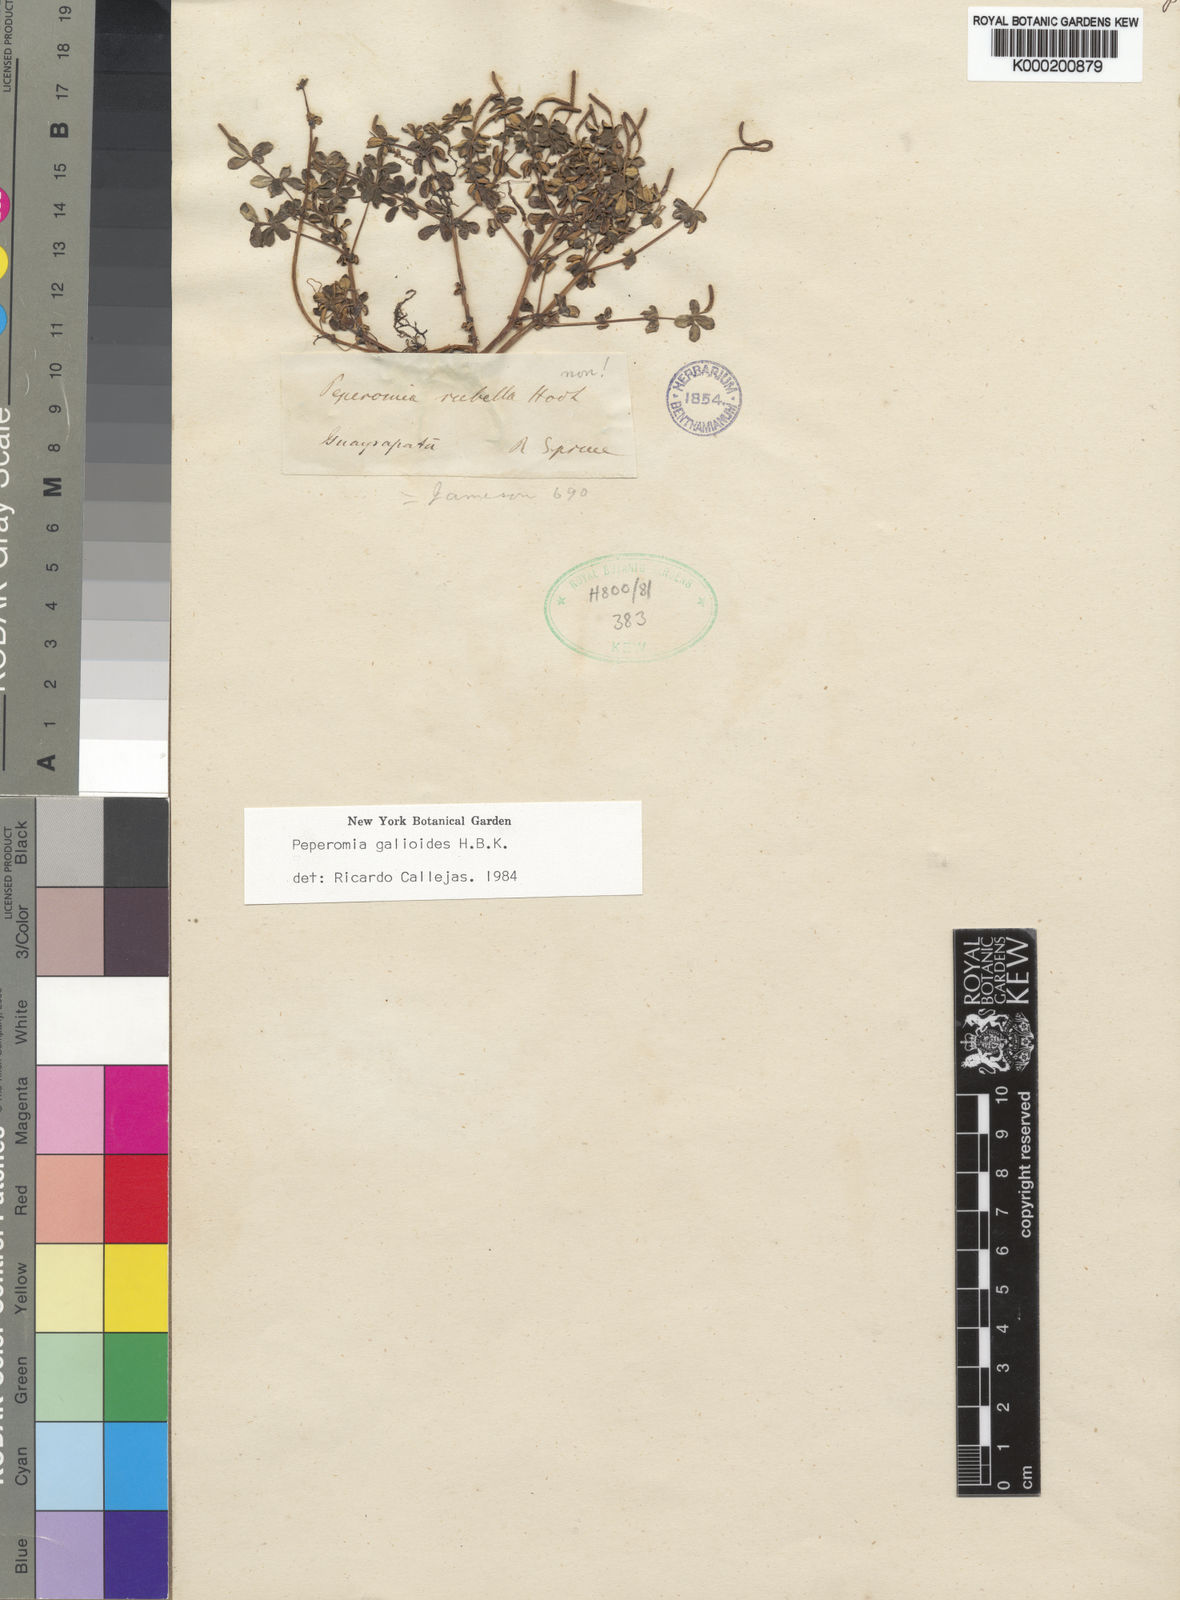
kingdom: Plantae
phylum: Tracheophyta
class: Magnoliopsida
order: Piperales
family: Piperaceae
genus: Peperomia
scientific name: Peperomia galioides
